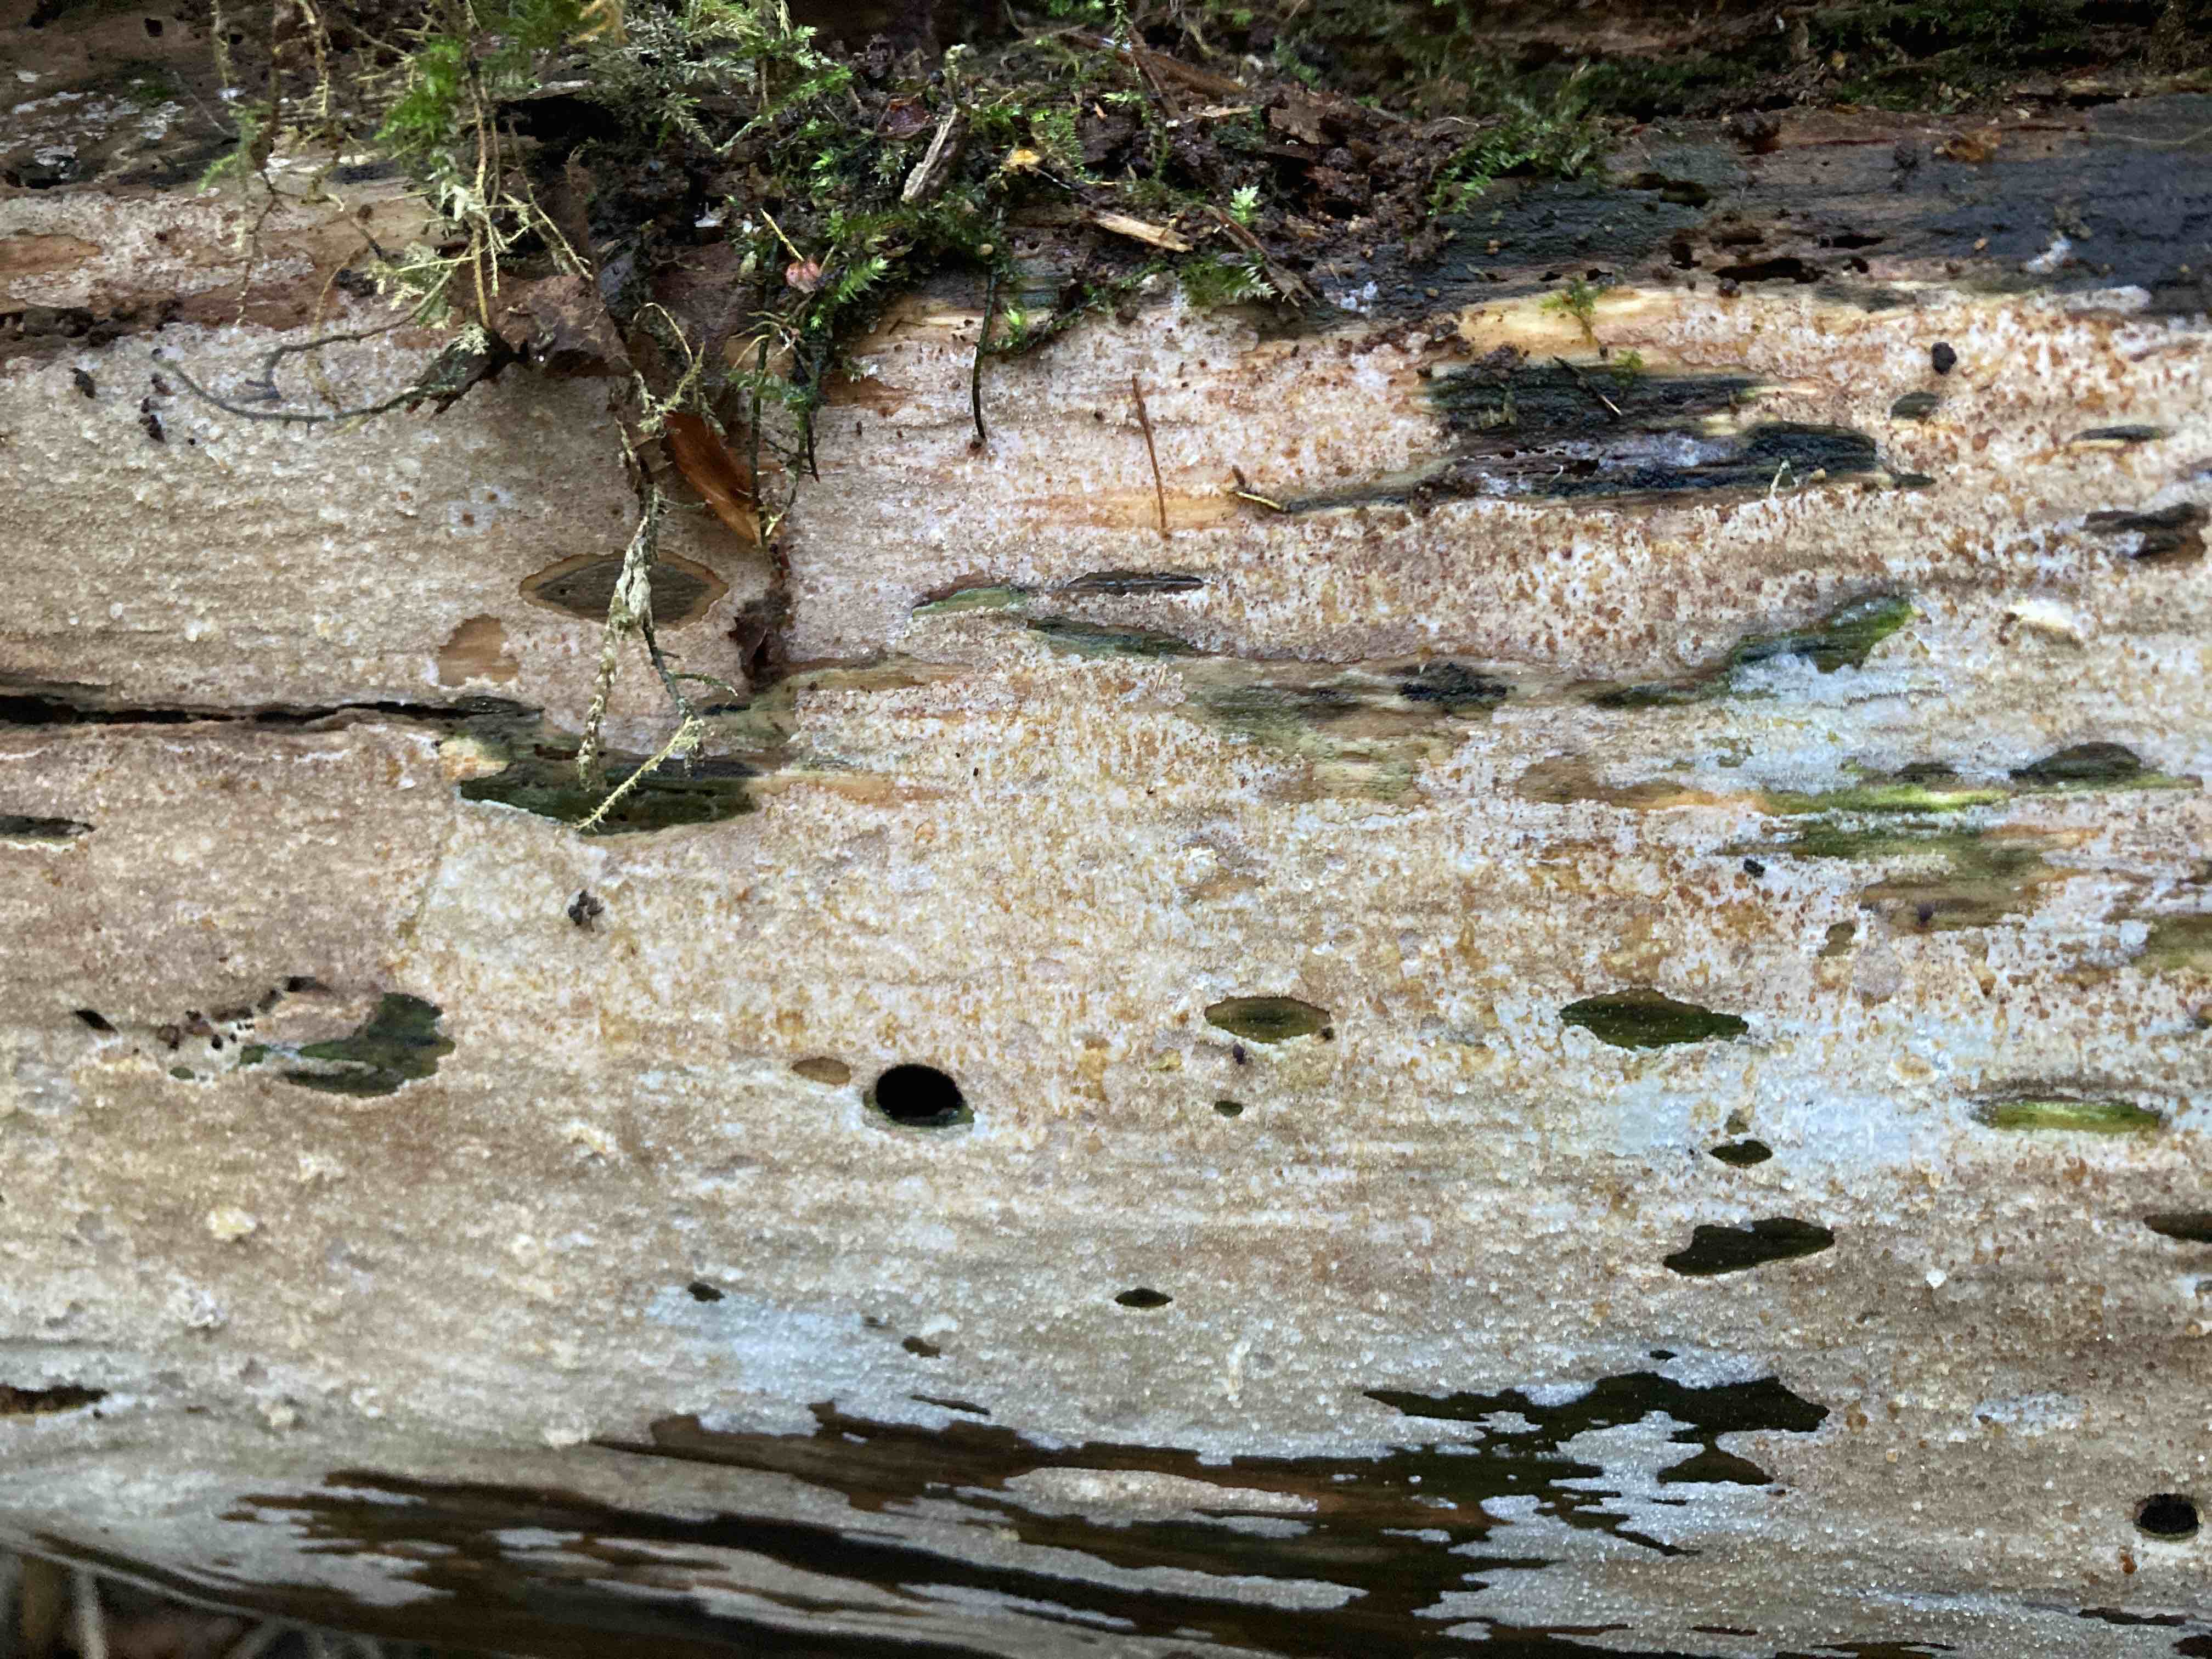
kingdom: Fungi
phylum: Basidiomycota
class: Agaricomycetes
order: Hymenochaetales
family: Rickenellaceae
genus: Resinicium
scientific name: Resinicium bicolor
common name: almindelig vokstand
